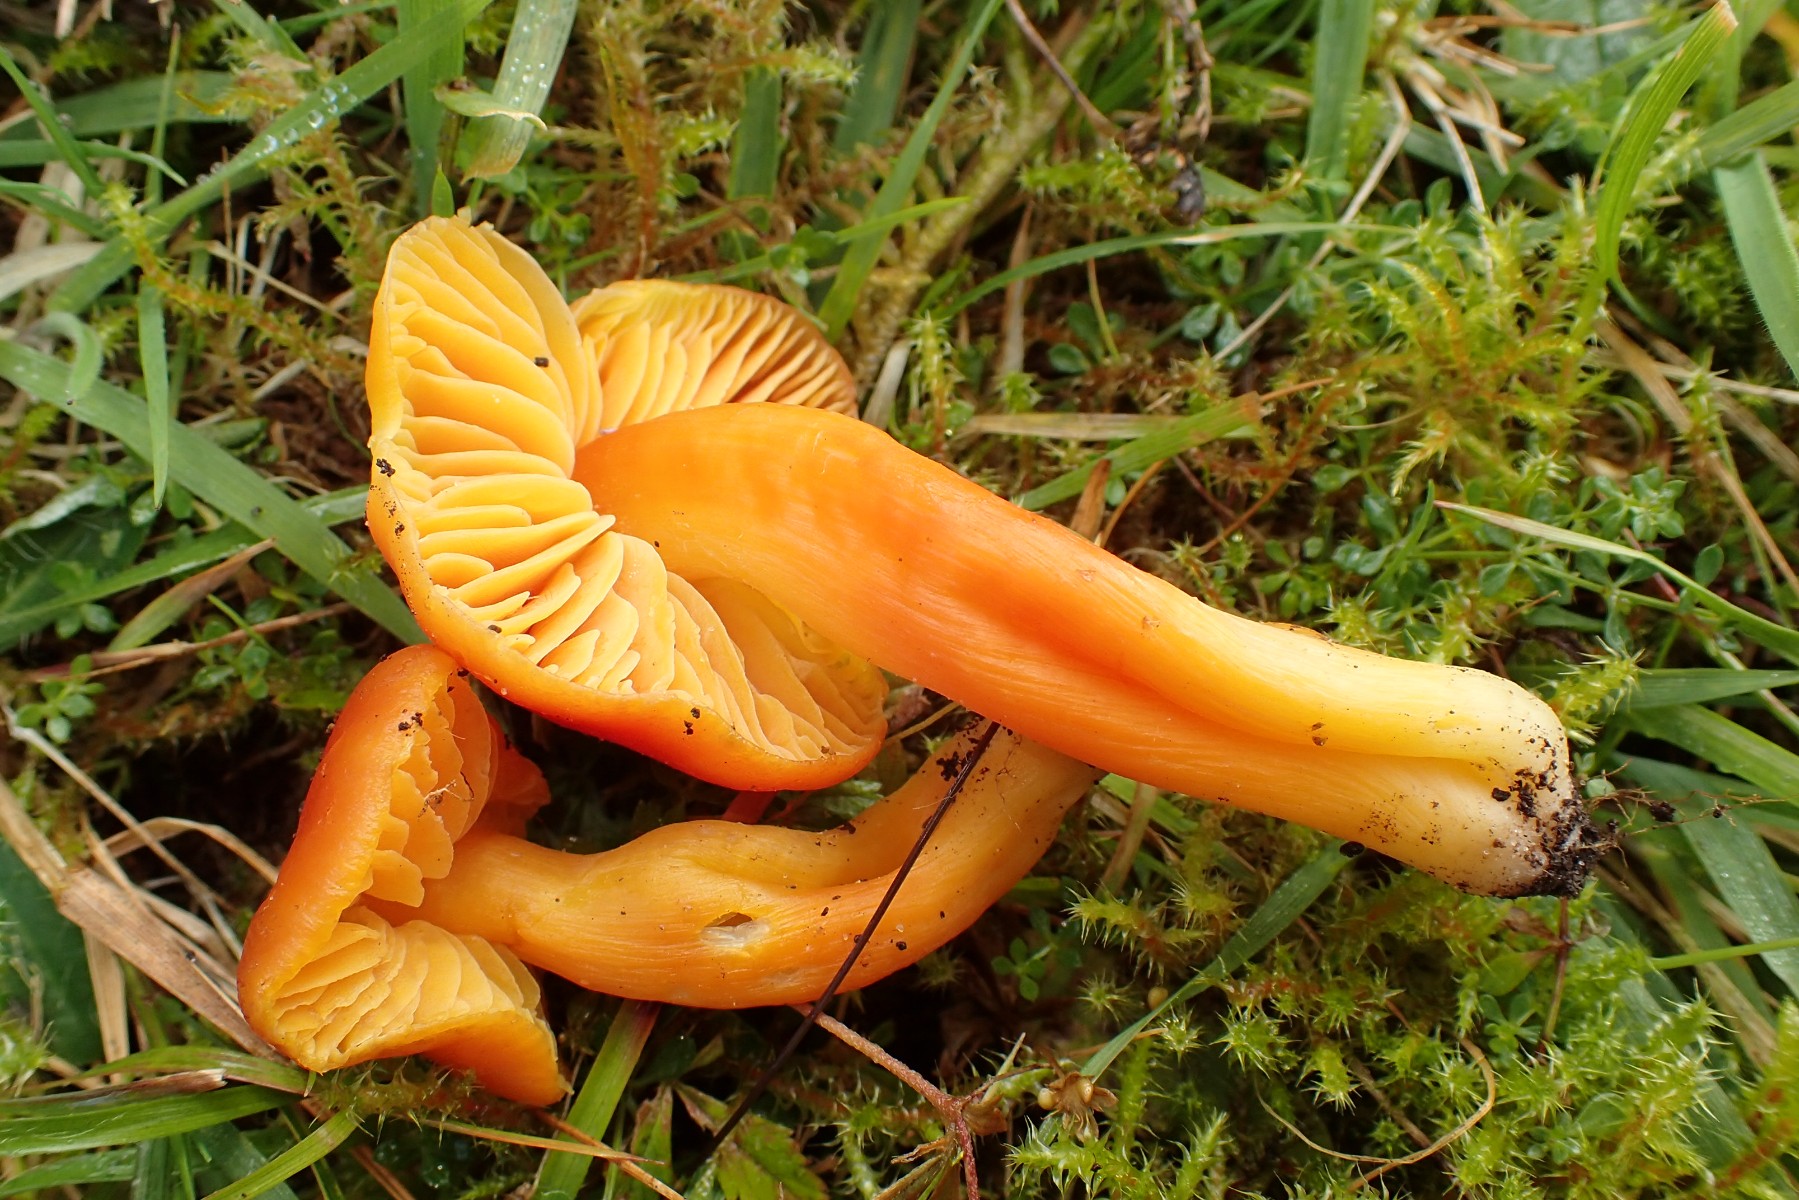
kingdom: Fungi
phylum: Basidiomycota
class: Agaricomycetes
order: Agaricales
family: Hygrophoraceae
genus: Hygrocybe
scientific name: Hygrocybe splendidissima
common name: knaldrød vokshat
